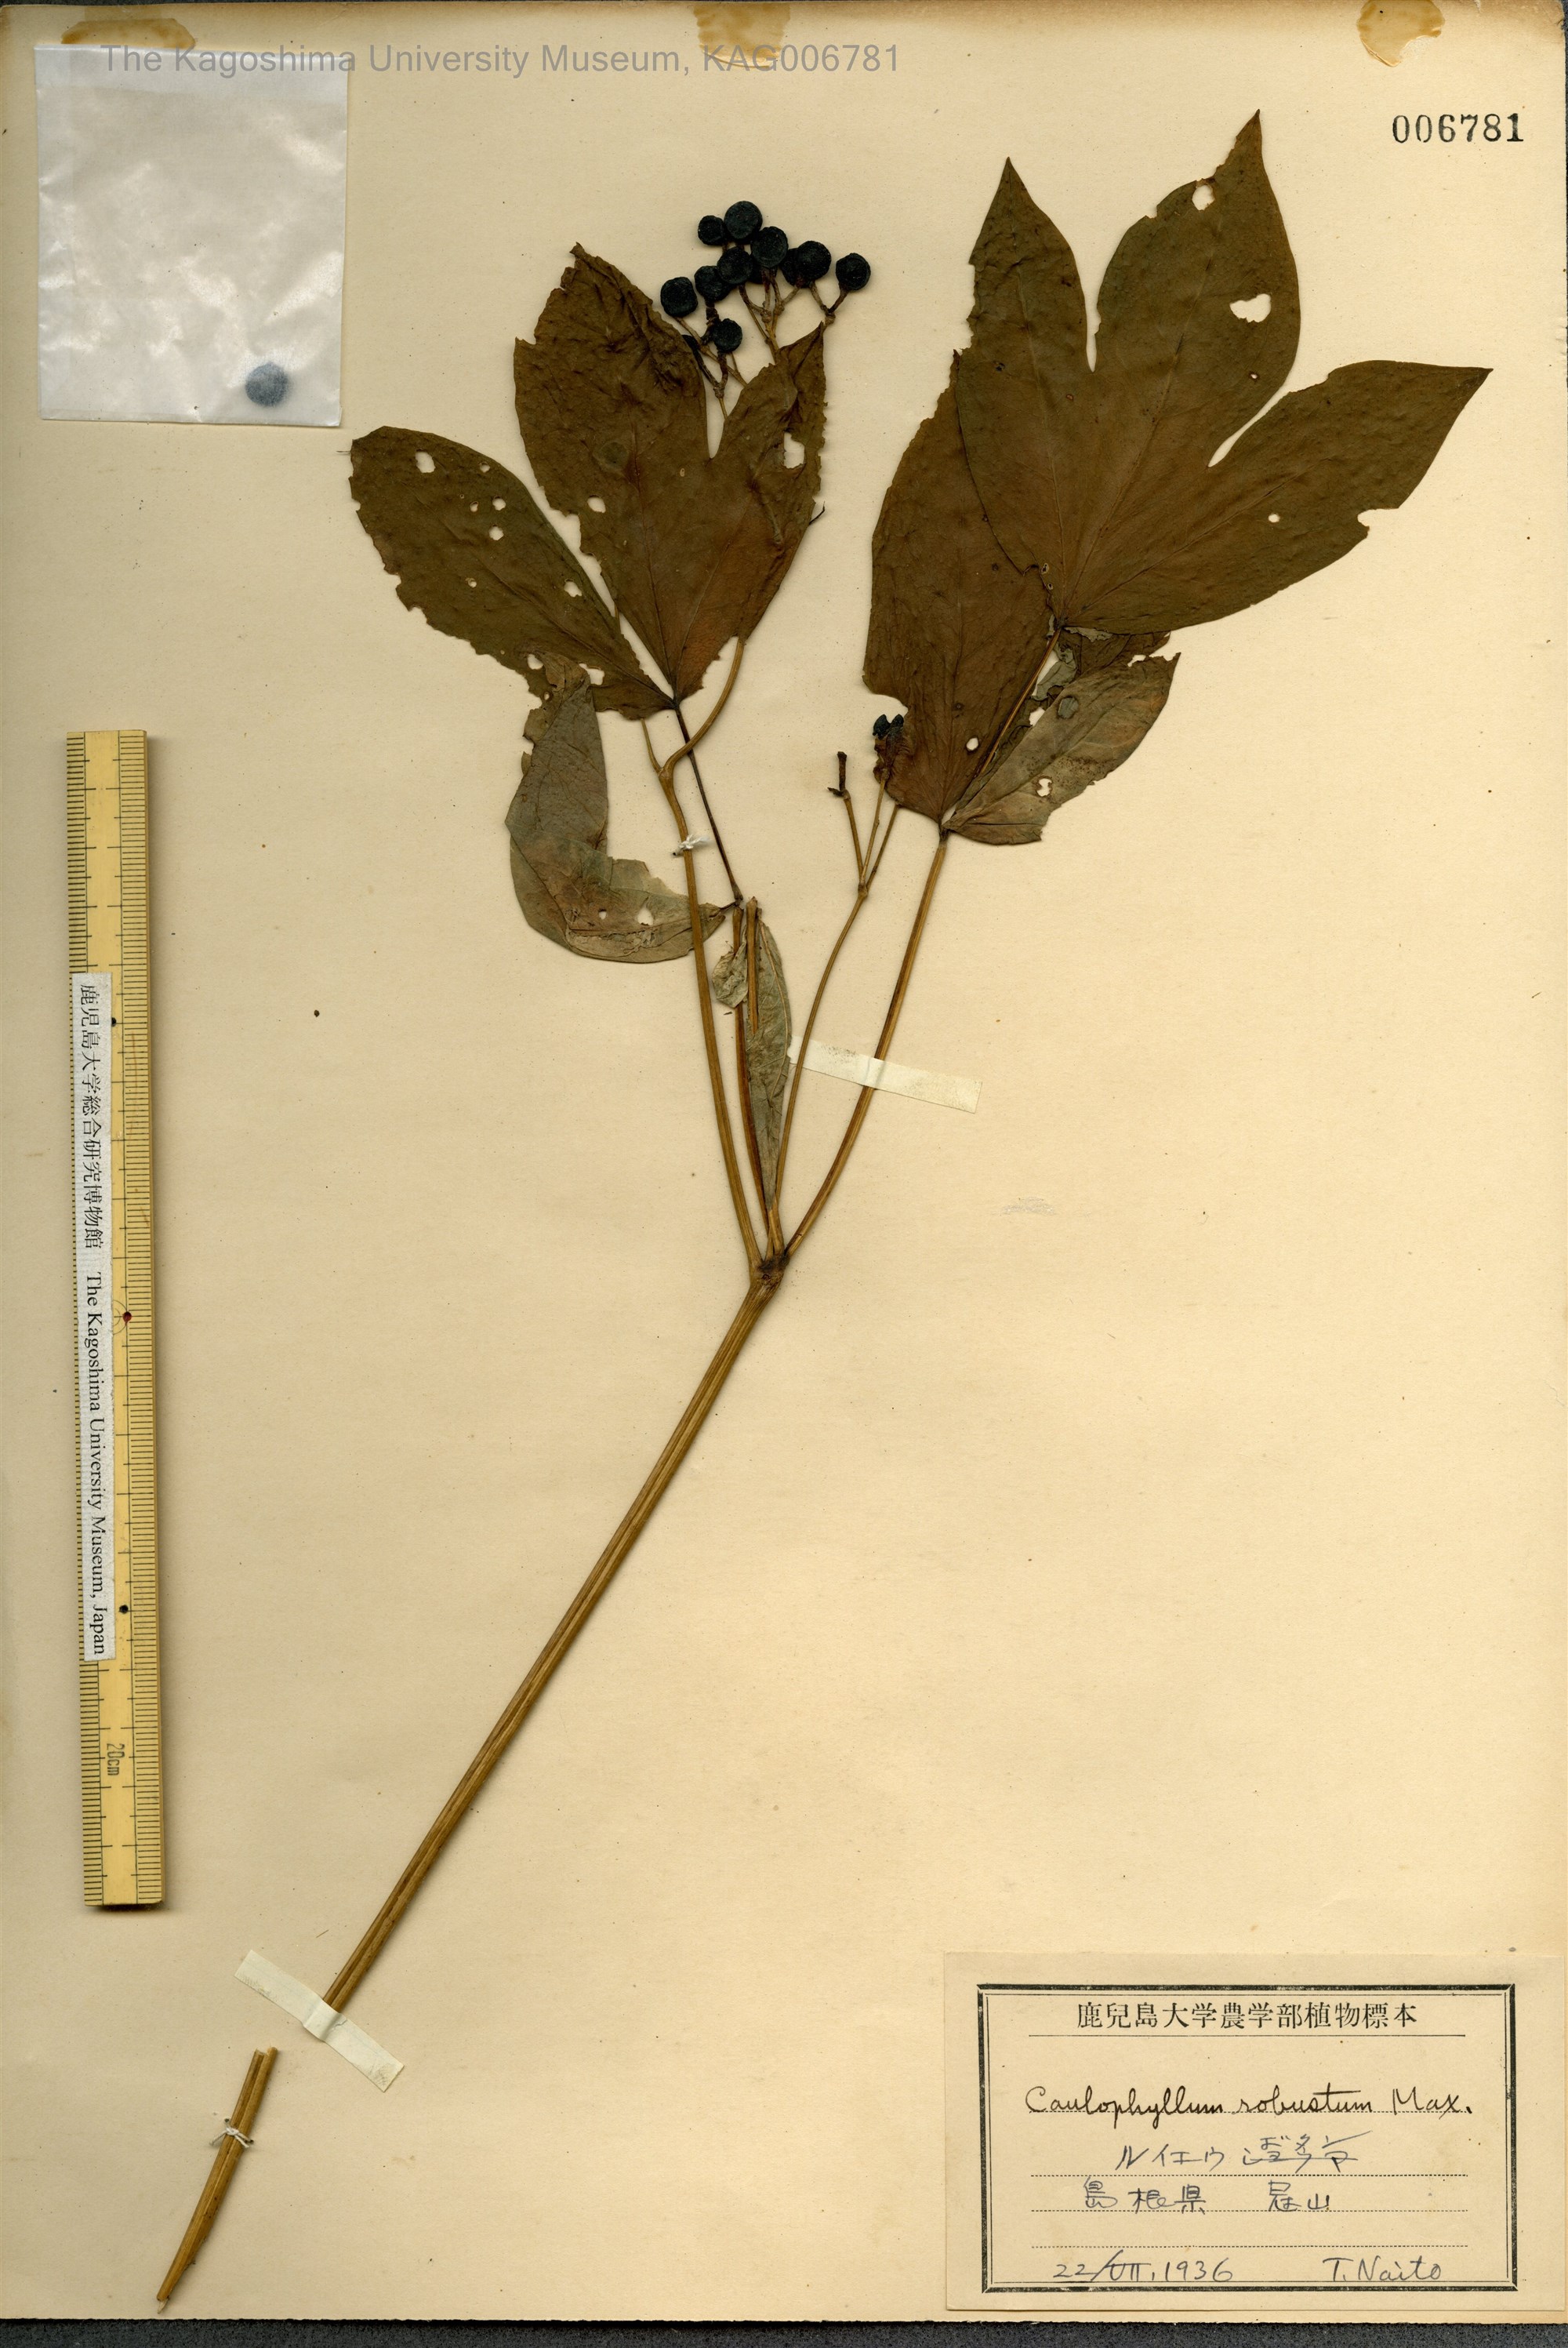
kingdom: Plantae
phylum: Tracheophyta
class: Magnoliopsida
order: Ranunculales
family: Berberidaceae
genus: Caulophyllum
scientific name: Caulophyllum robustum
